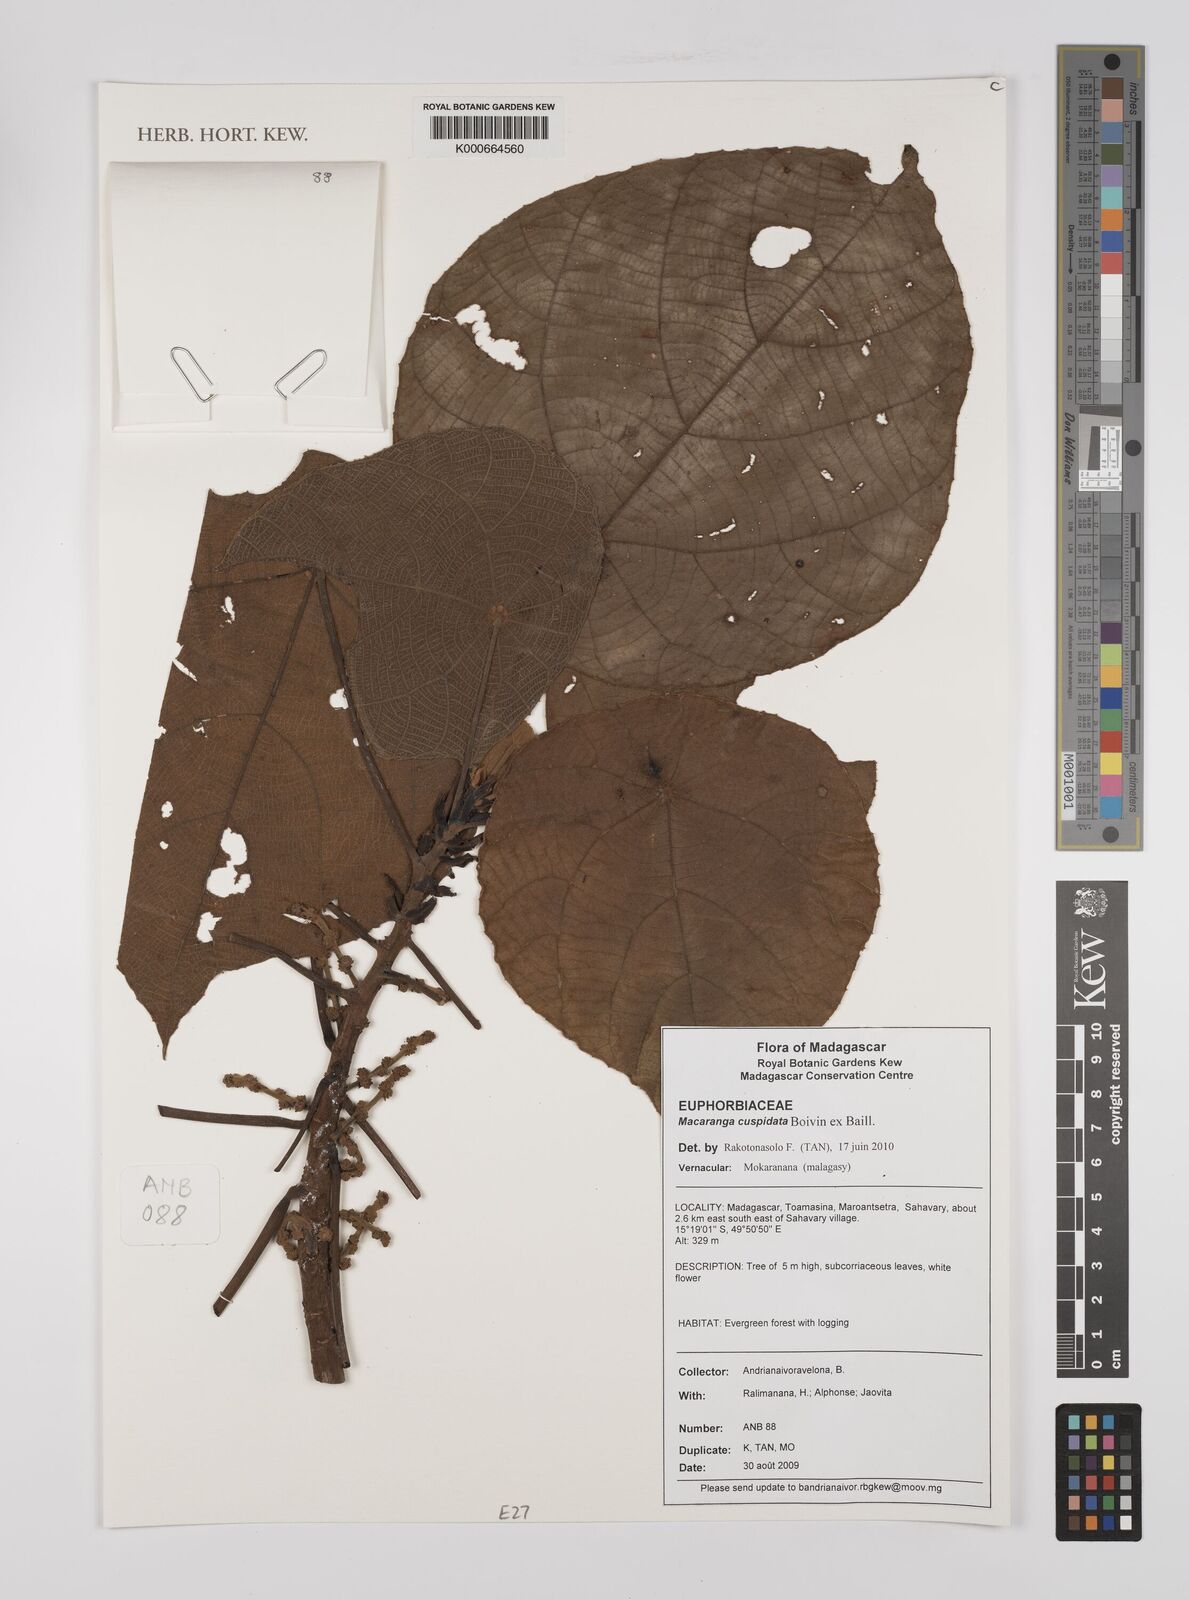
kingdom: Plantae
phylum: Tracheophyta
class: Magnoliopsida
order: Malpighiales
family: Euphorbiaceae
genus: Macaranga
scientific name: Macaranga cuspidata
